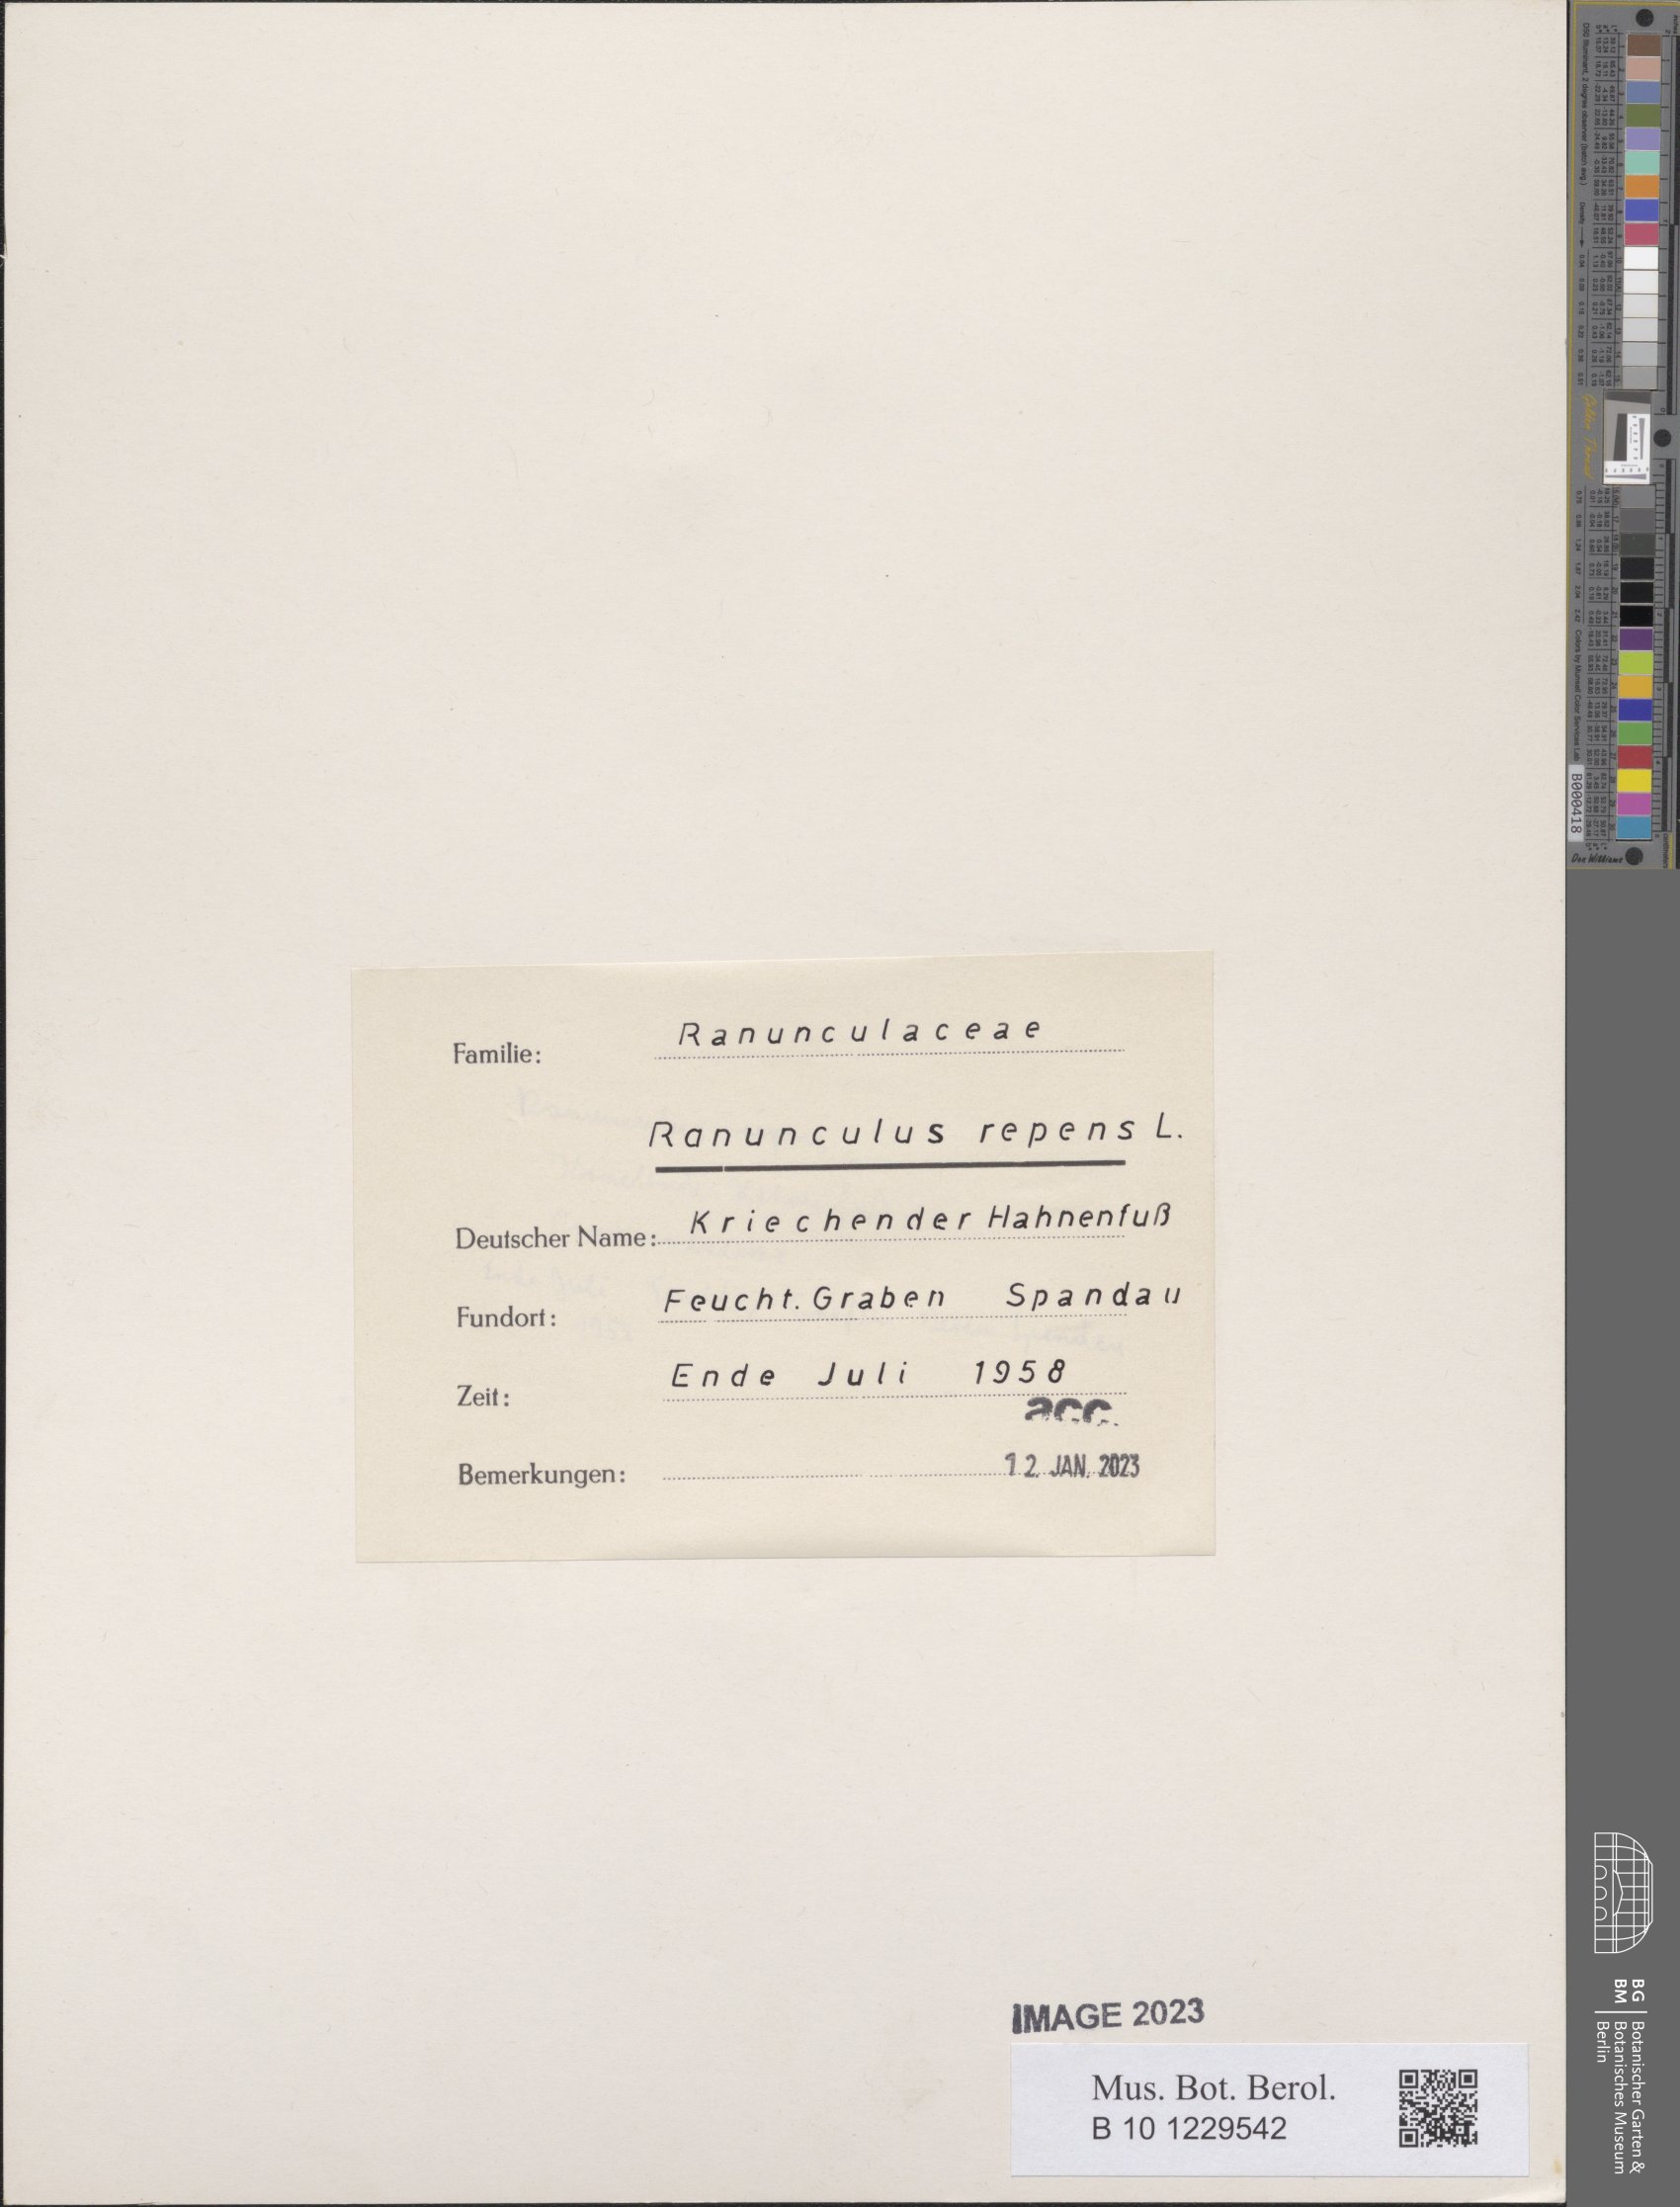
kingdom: Plantae
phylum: Tracheophyta
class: Magnoliopsida
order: Ranunculales
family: Ranunculaceae
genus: Ranunculus
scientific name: Ranunculus repens
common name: Creeping buttercup
